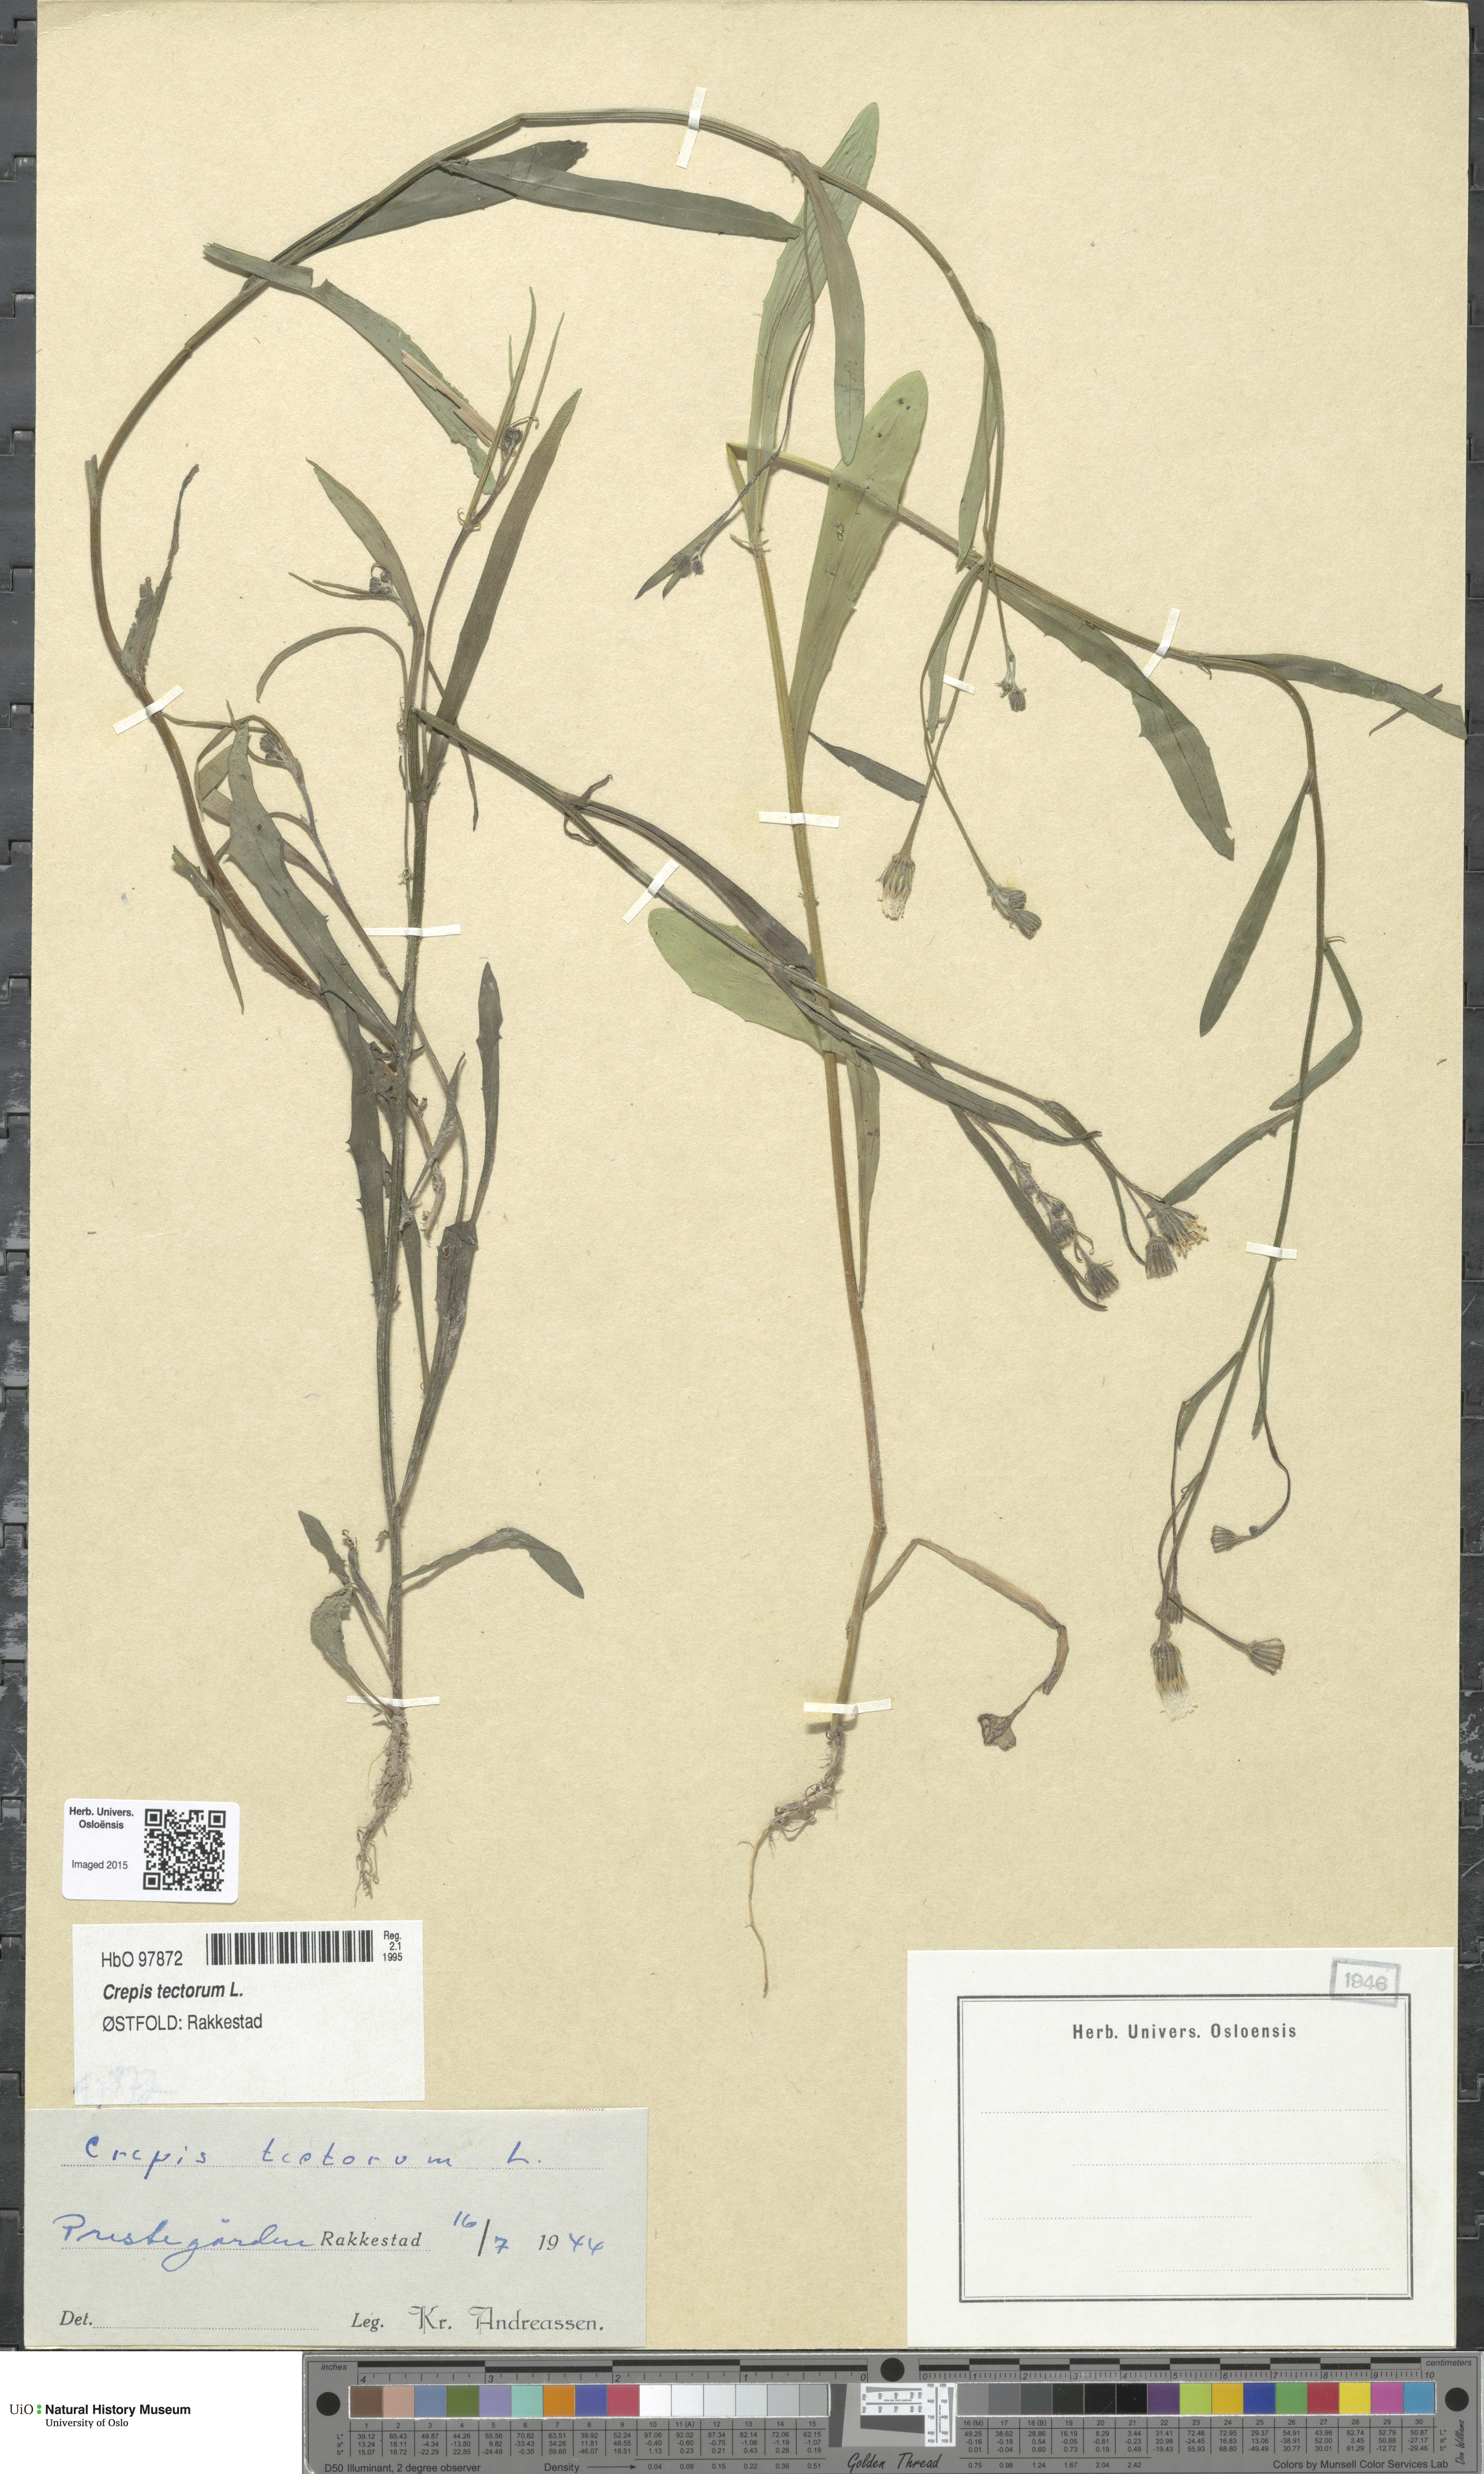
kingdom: Plantae
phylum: Tracheophyta
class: Magnoliopsida
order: Asterales
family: Asteraceae
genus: Crepis
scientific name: Crepis tectorum
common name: Narrow-leaved hawk's-beard
